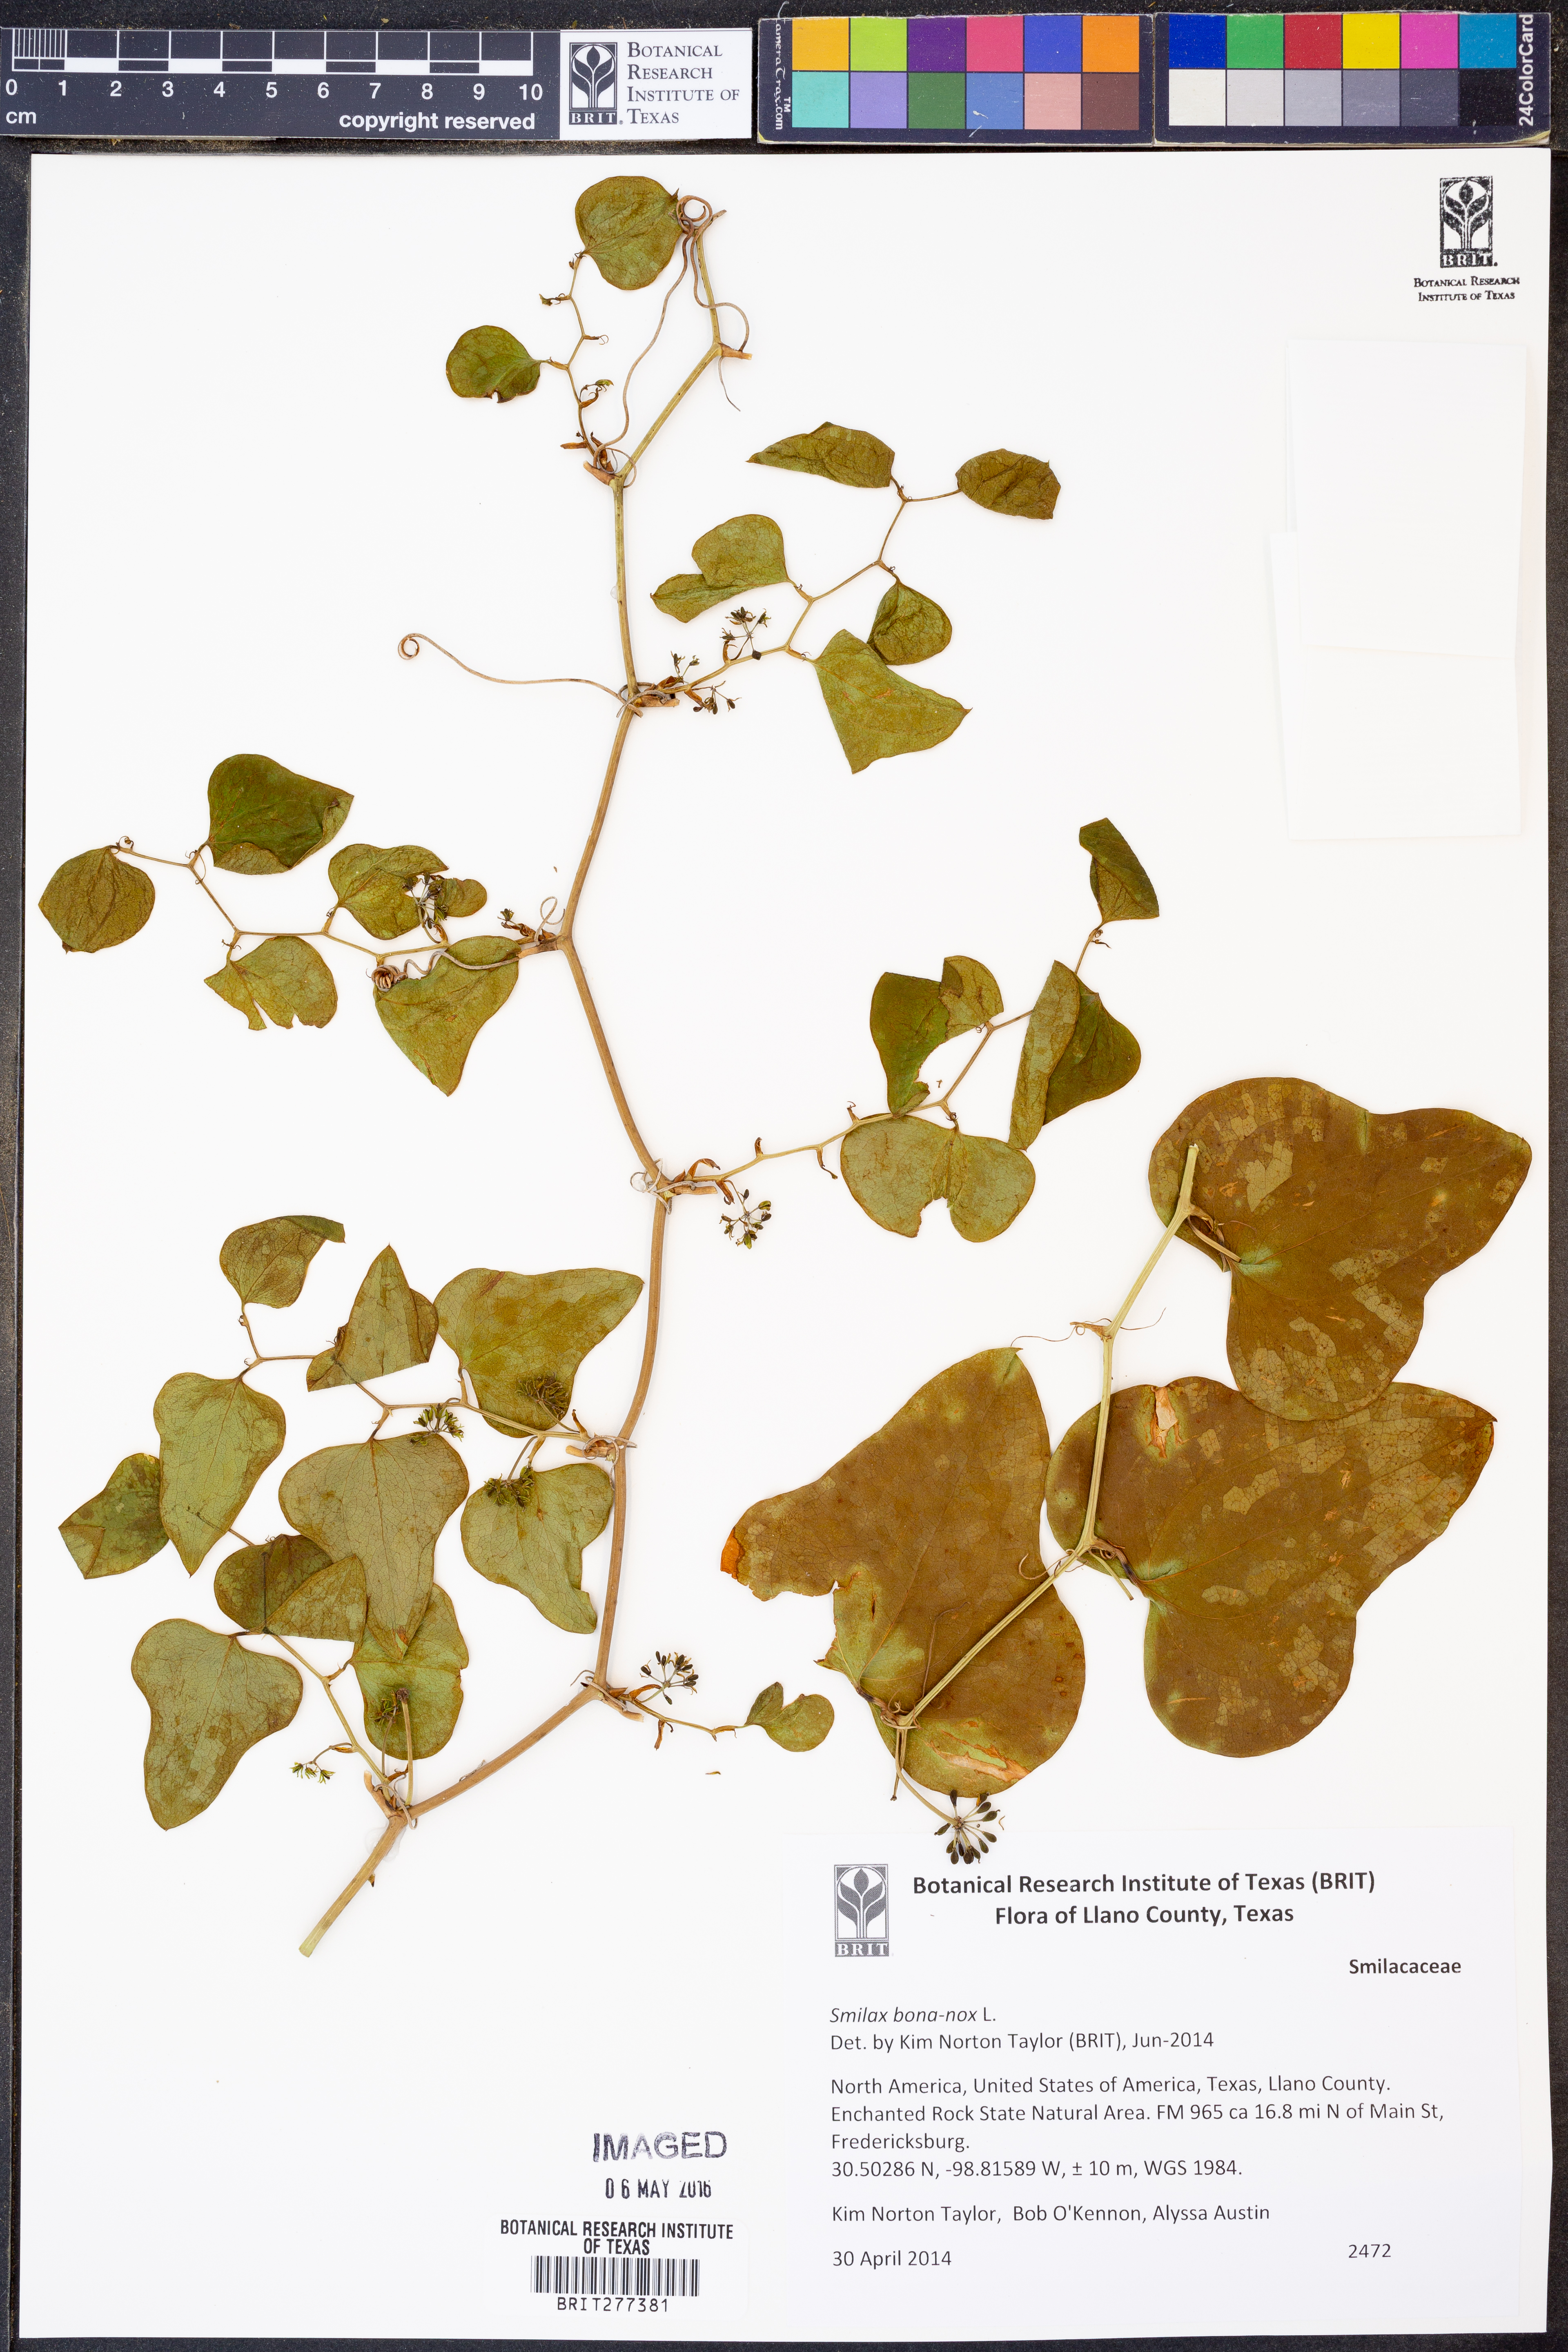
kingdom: Plantae
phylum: Tracheophyta
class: Liliopsida
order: Liliales
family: Smilacaceae
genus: Smilax
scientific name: Smilax bona-nox
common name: Catbrier
